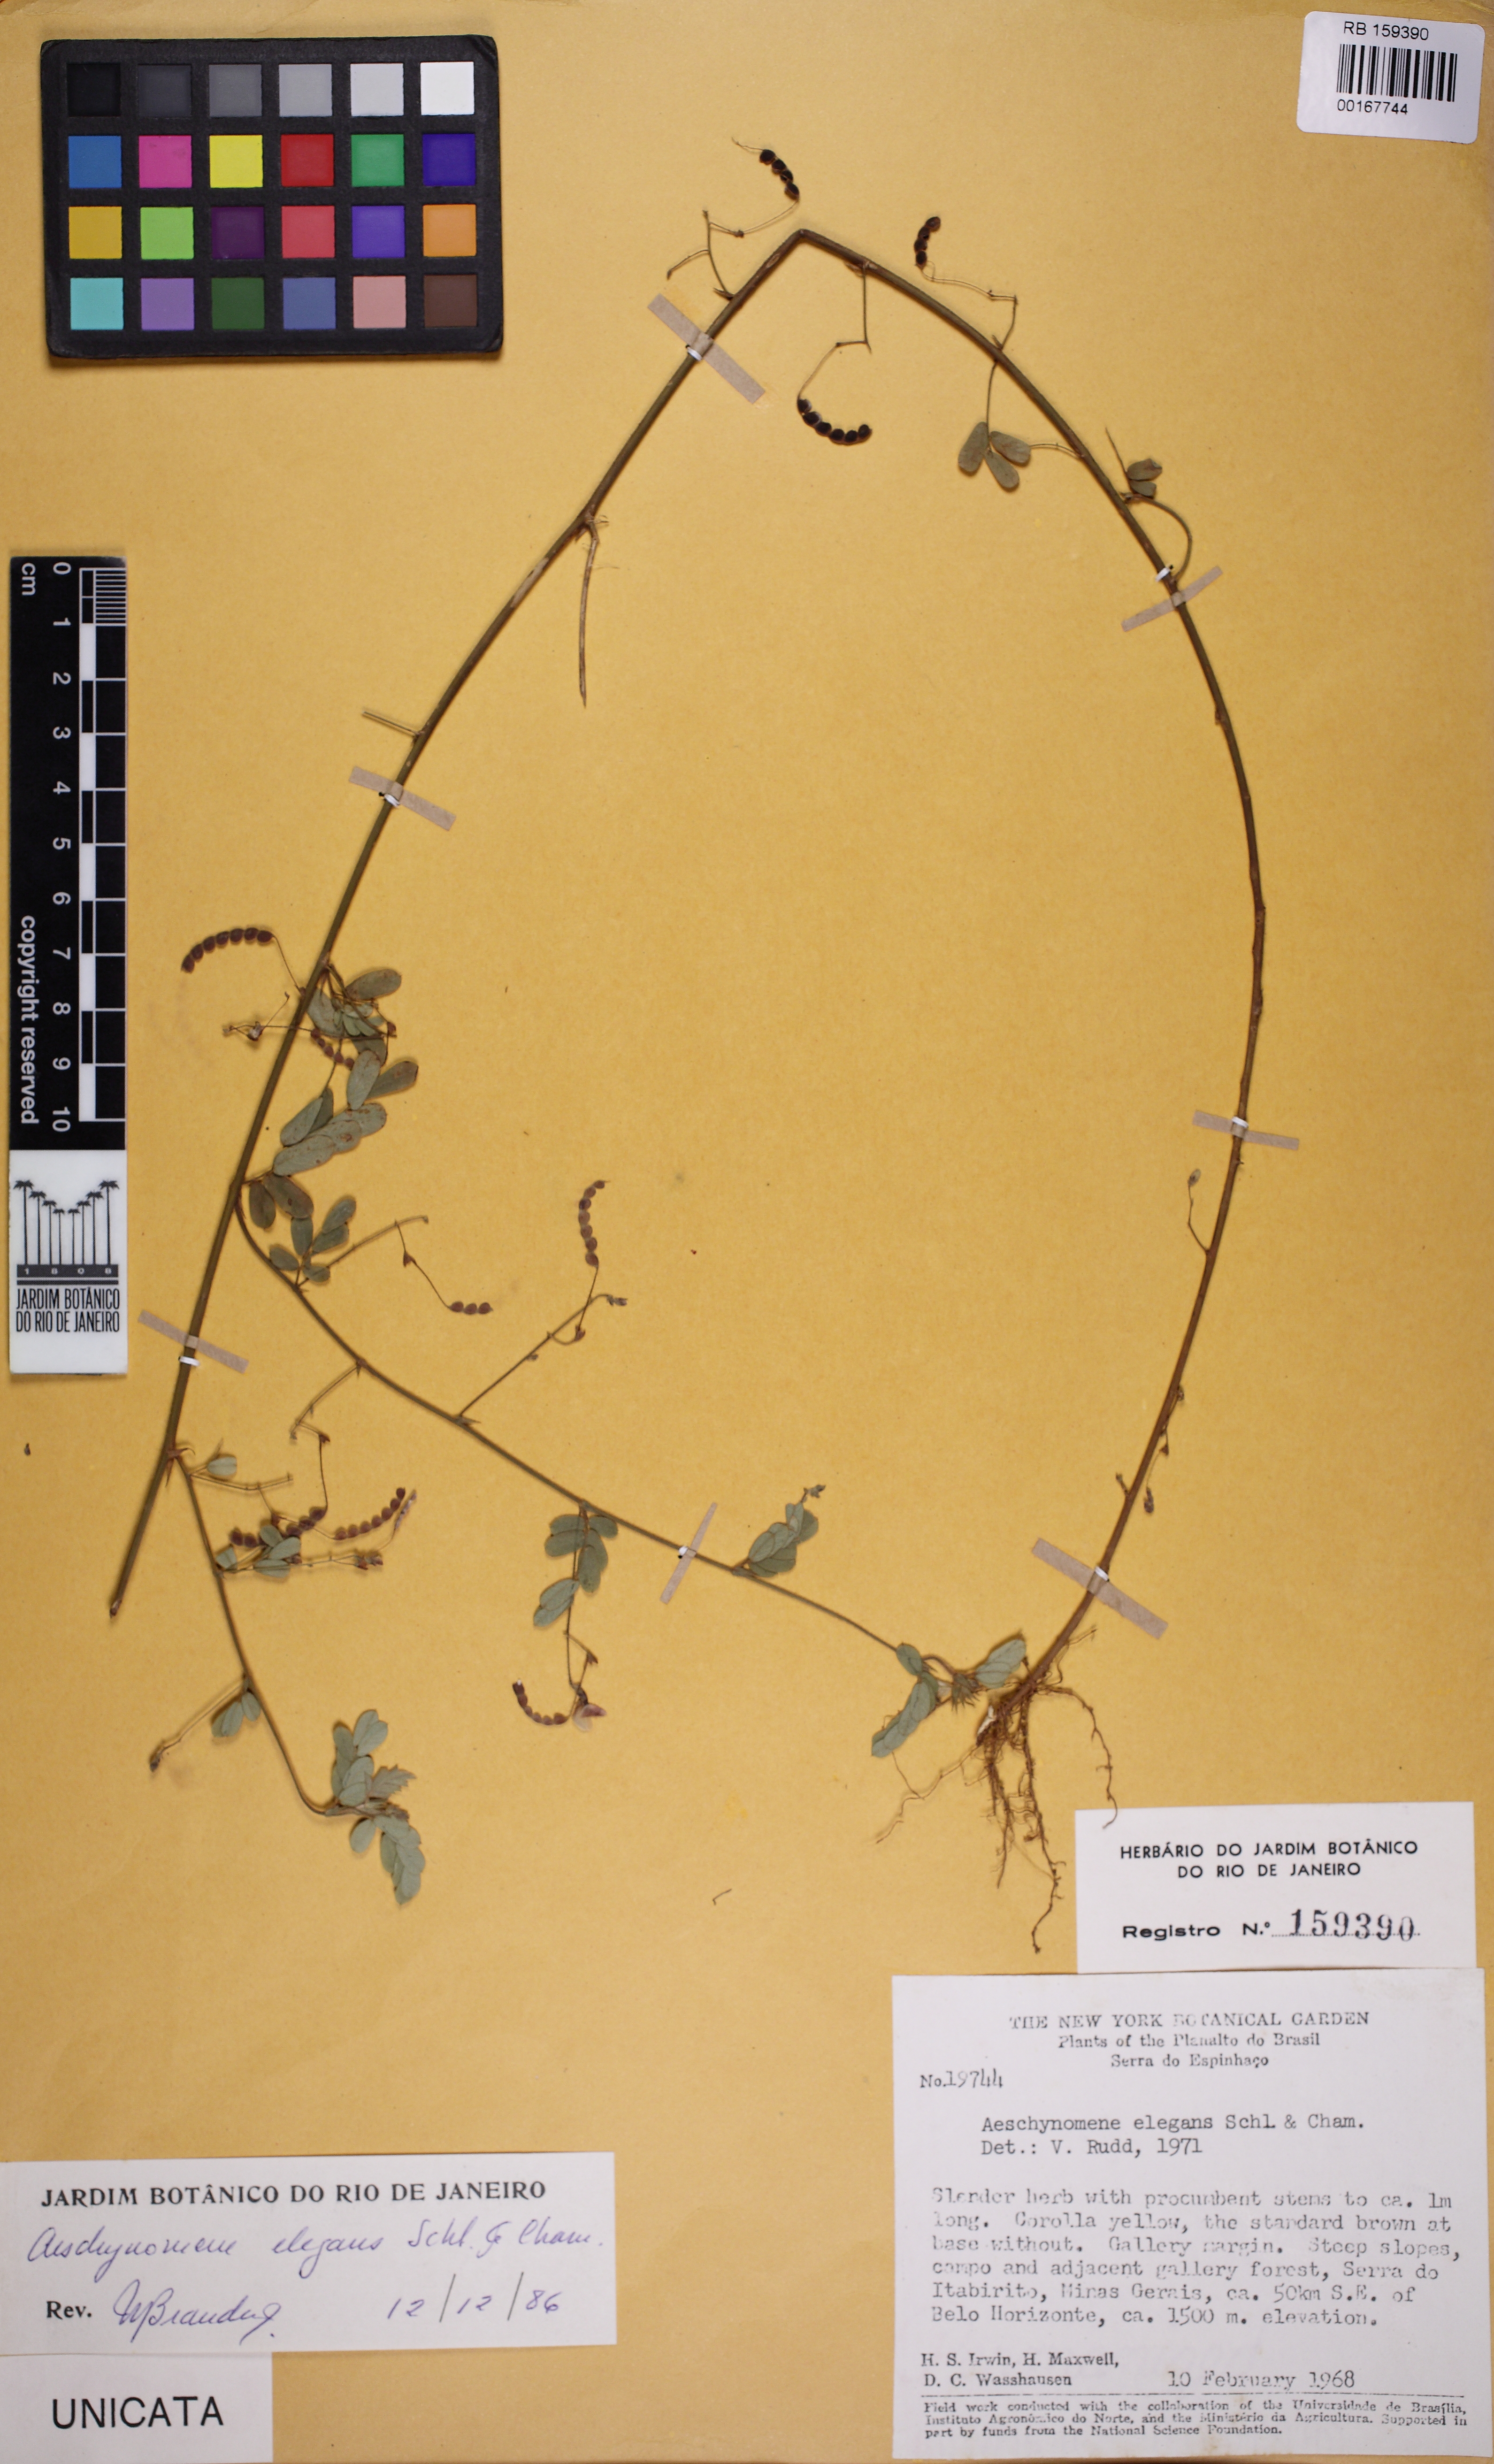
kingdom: Plantae
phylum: Tracheophyta
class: Magnoliopsida
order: Fabales
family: Fabaceae
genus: Ctenodon
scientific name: Ctenodon elegans
